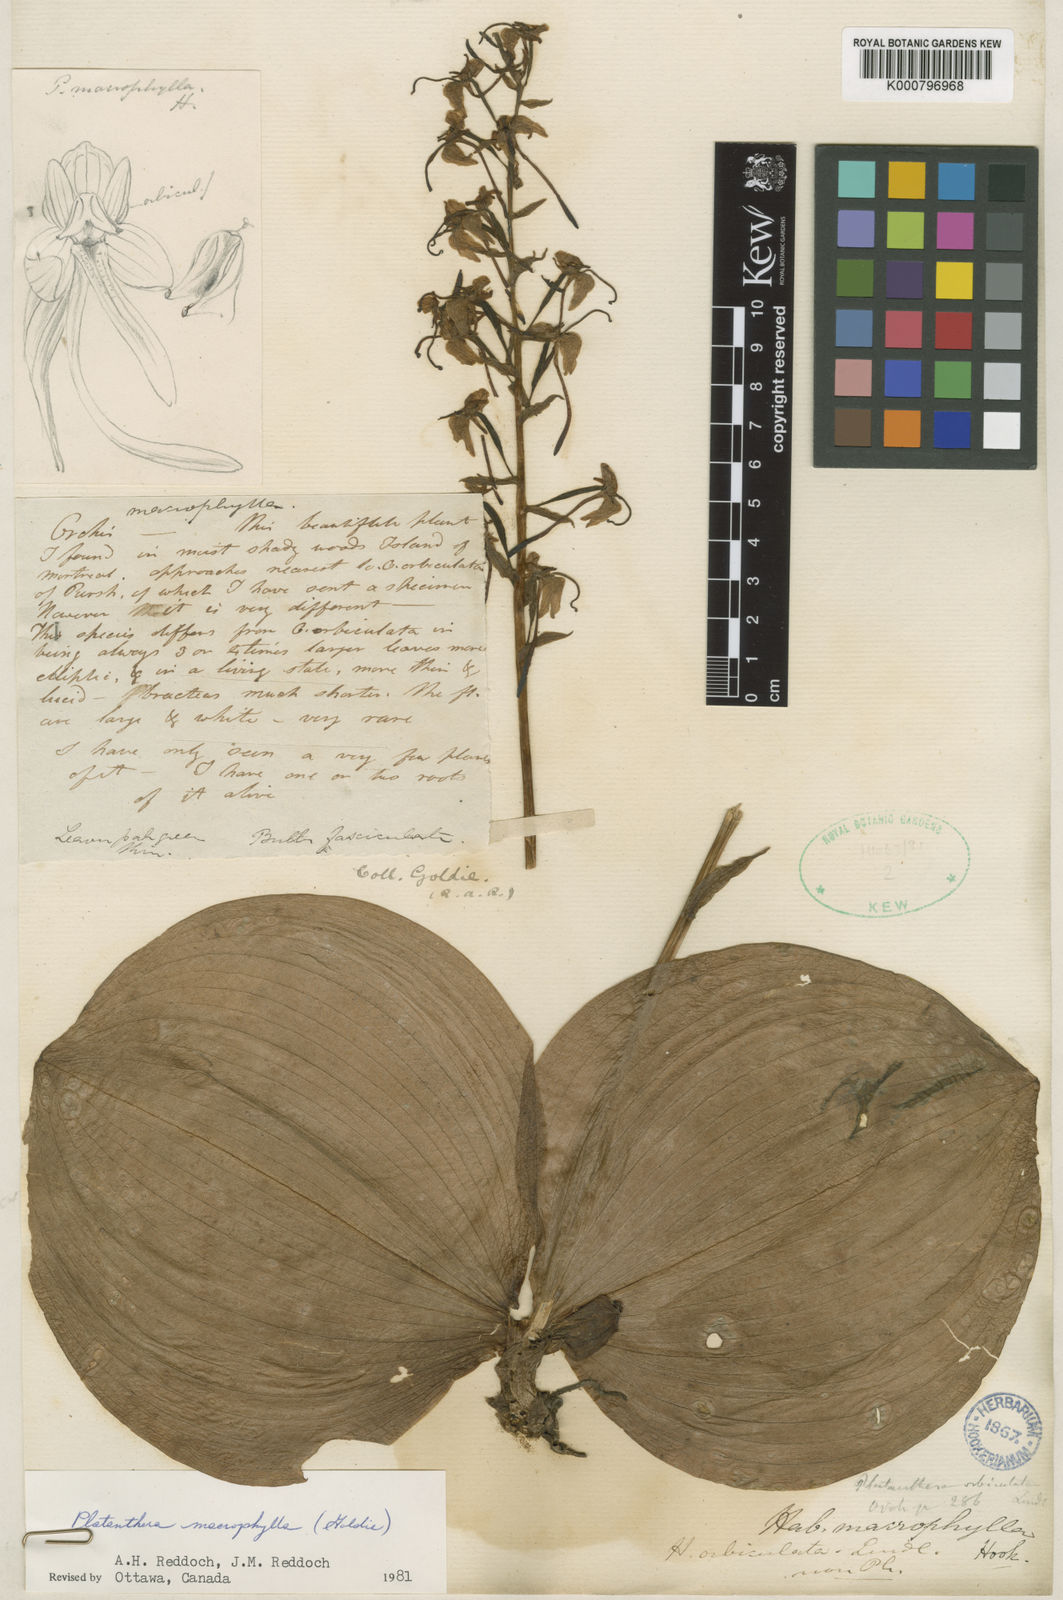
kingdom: Plantae
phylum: Tracheophyta
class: Liliopsida
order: Asparagales
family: Orchidaceae
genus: Platanthera
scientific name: Platanthera orbiculata
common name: Large round-leaved orchid
